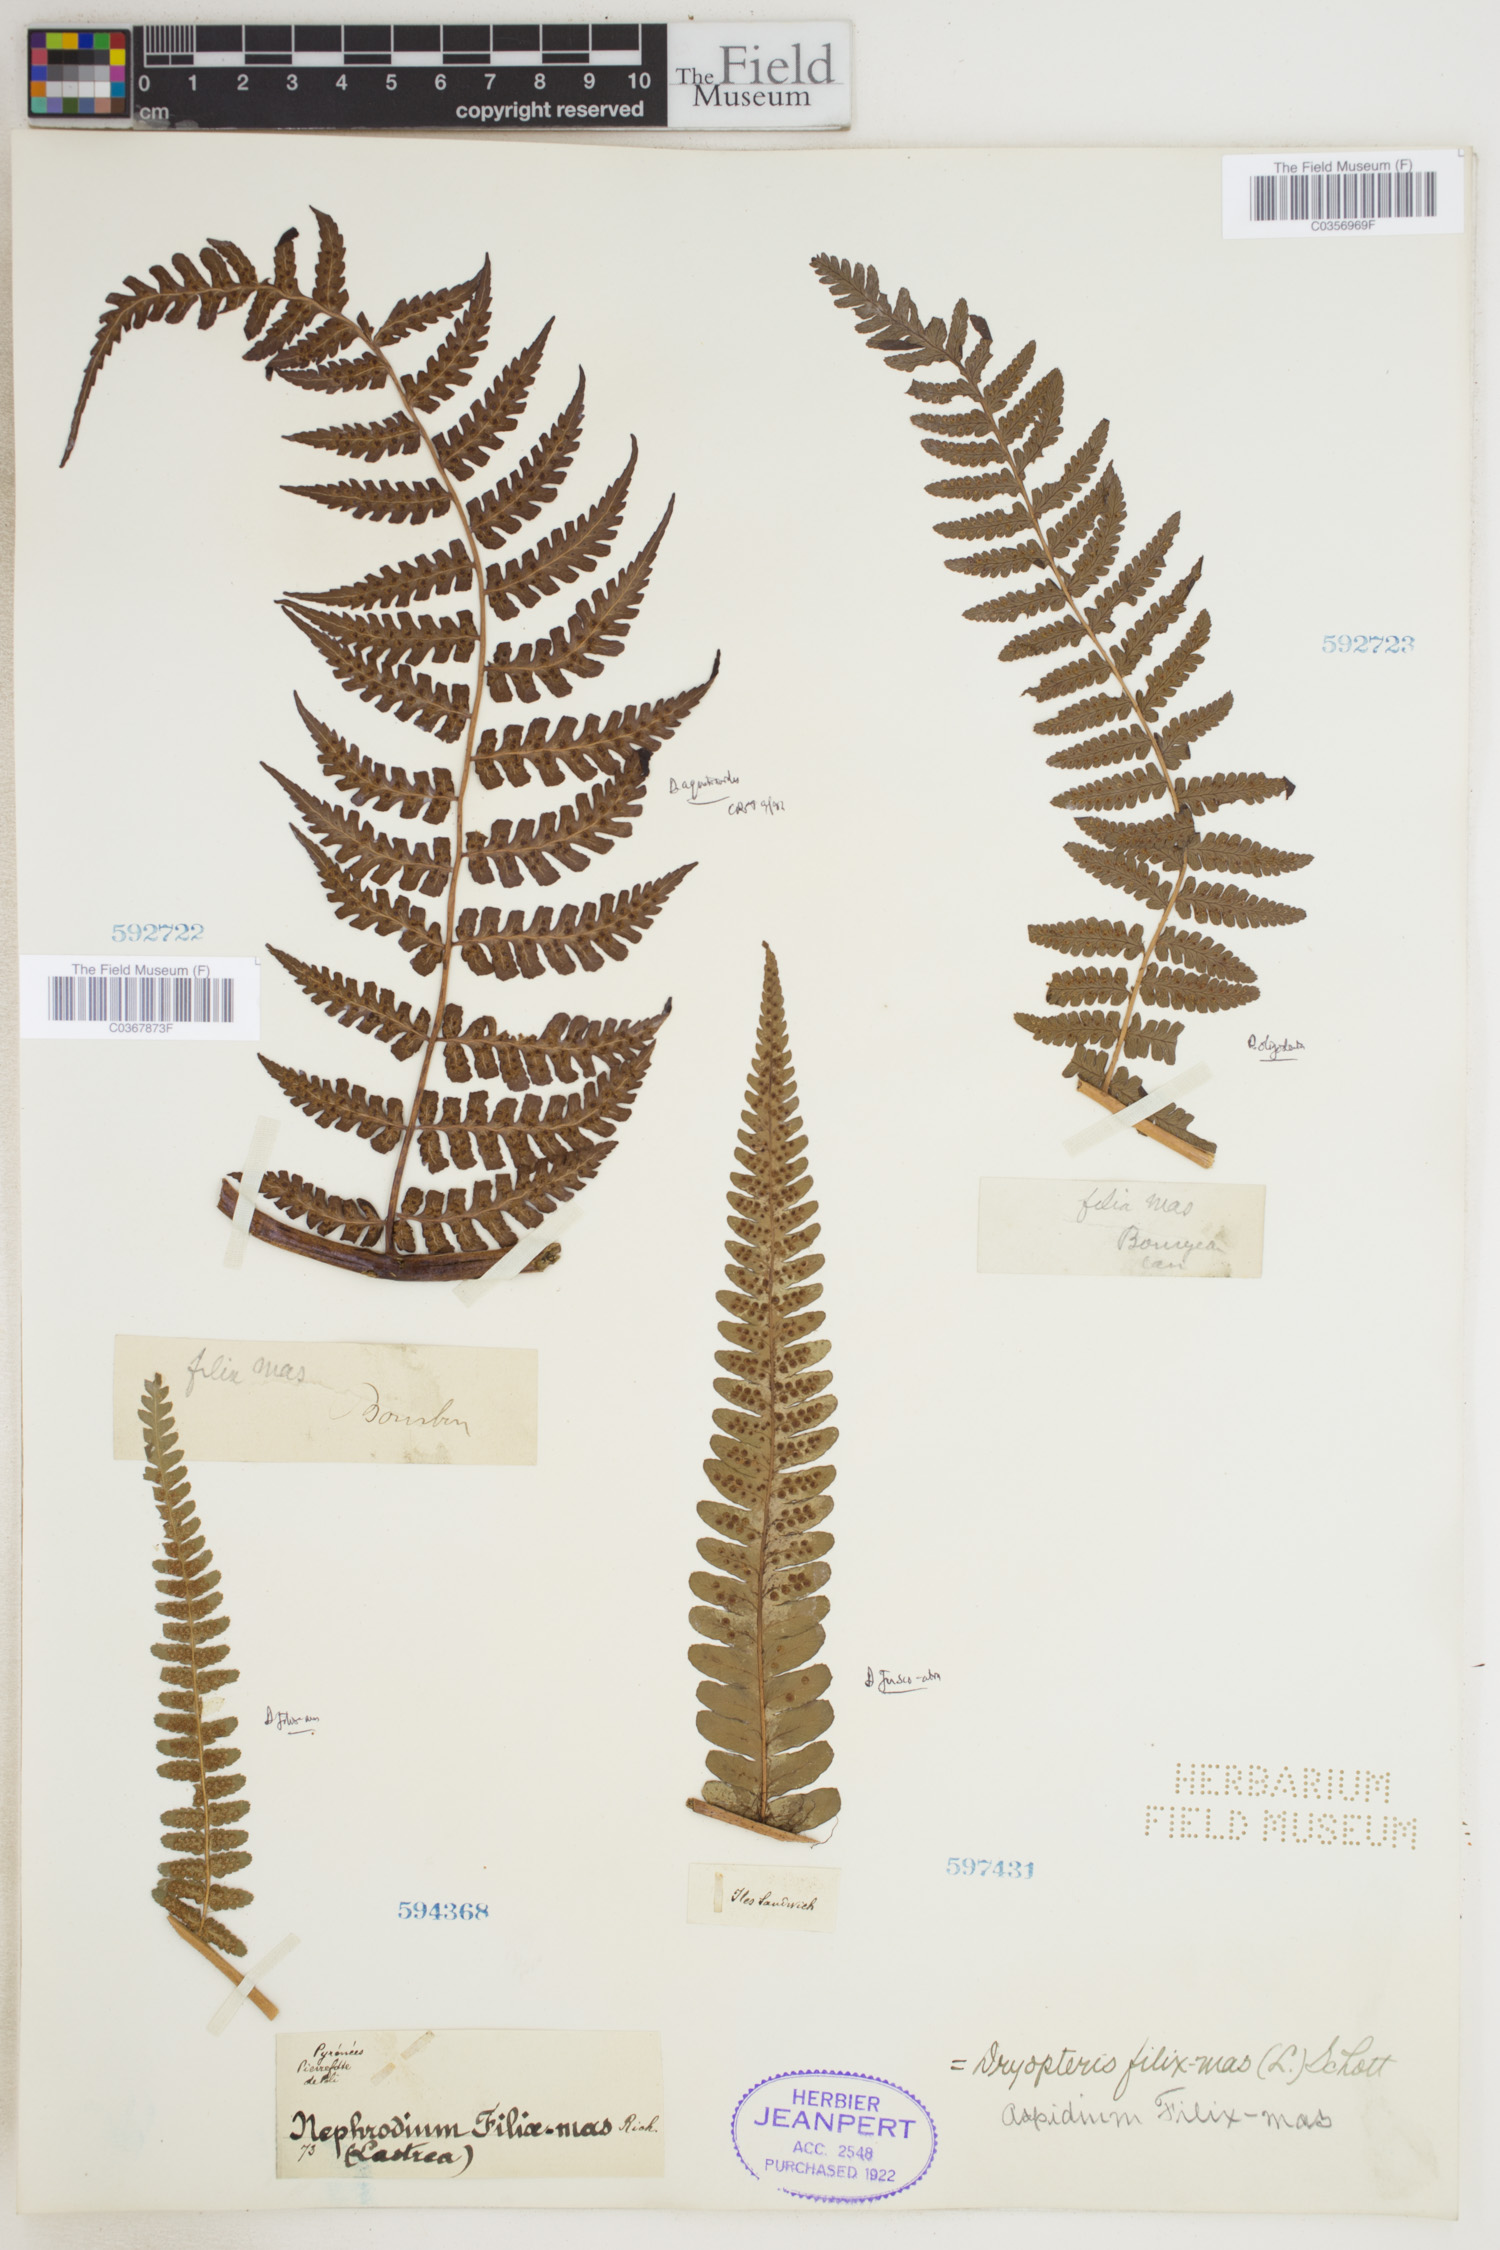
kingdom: Plantae
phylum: Tracheophyta
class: Polypodiopsida
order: Polypodiales
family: Dryopteridaceae
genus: Dryopteris
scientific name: Dryopteris filix-mas
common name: Male fern
